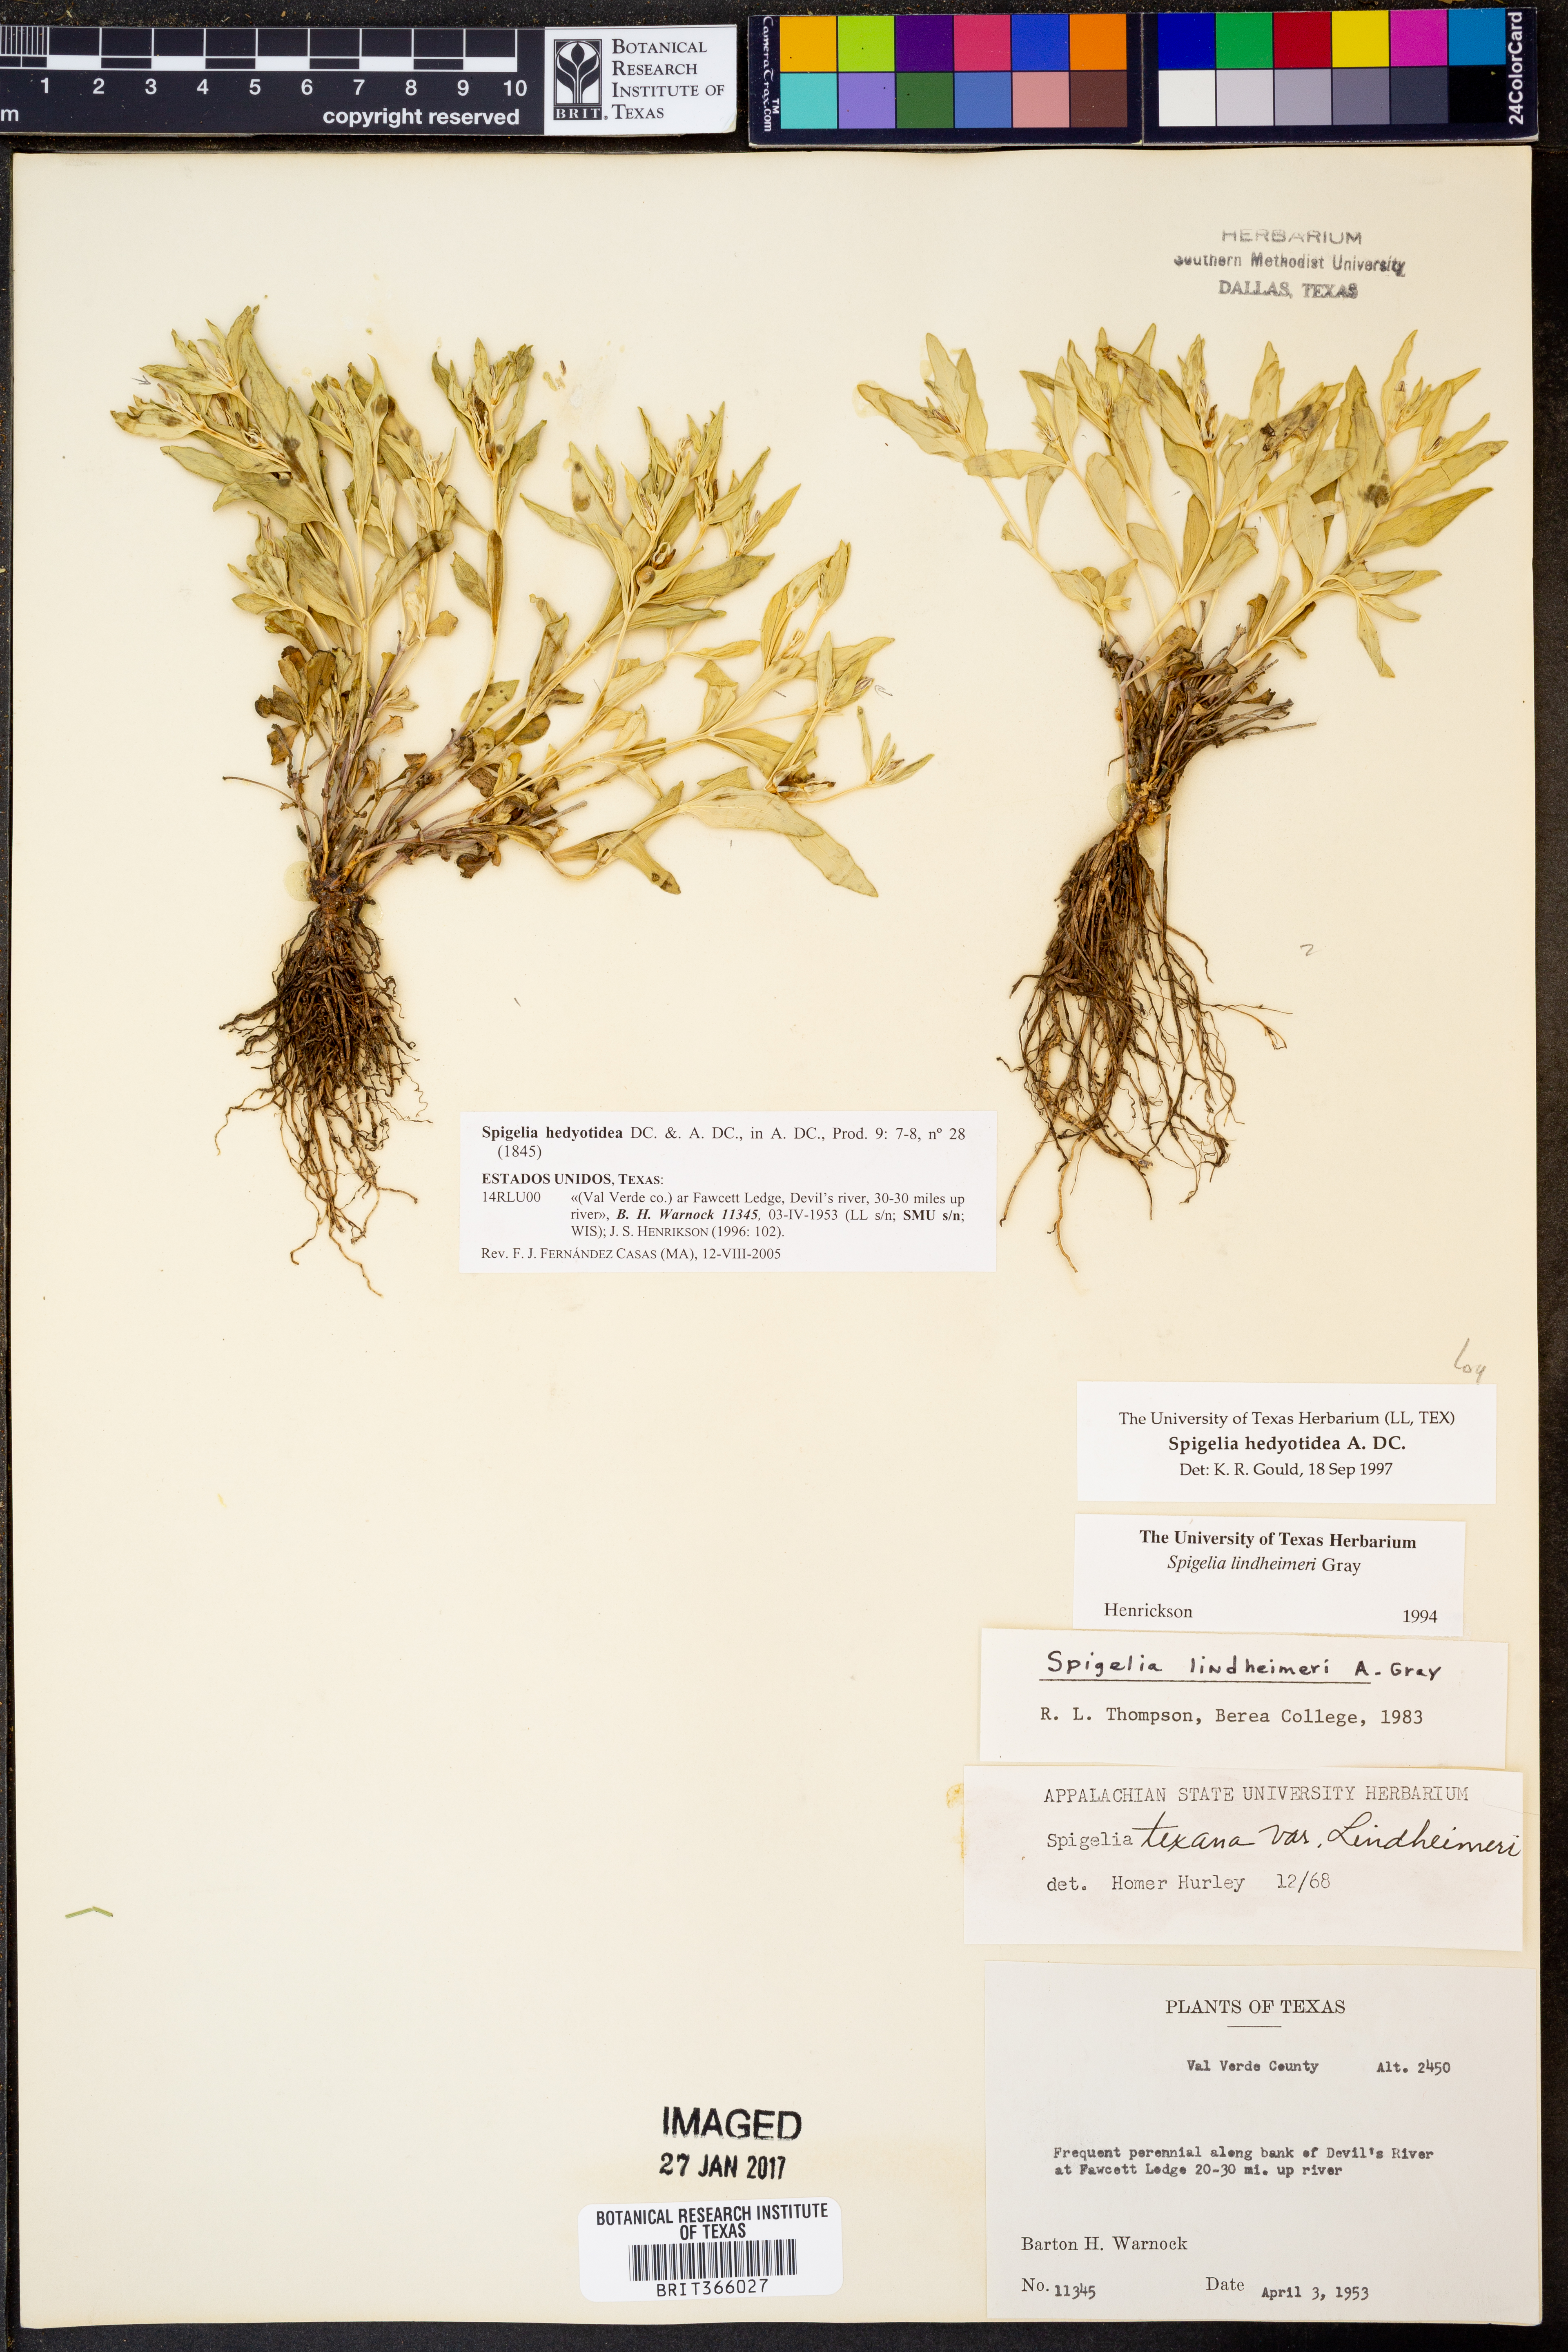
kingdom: Plantae
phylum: Tracheophyta
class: Magnoliopsida
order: Gentianales
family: Loganiaceae
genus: Spigelia
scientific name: Spigelia hedyotidea
